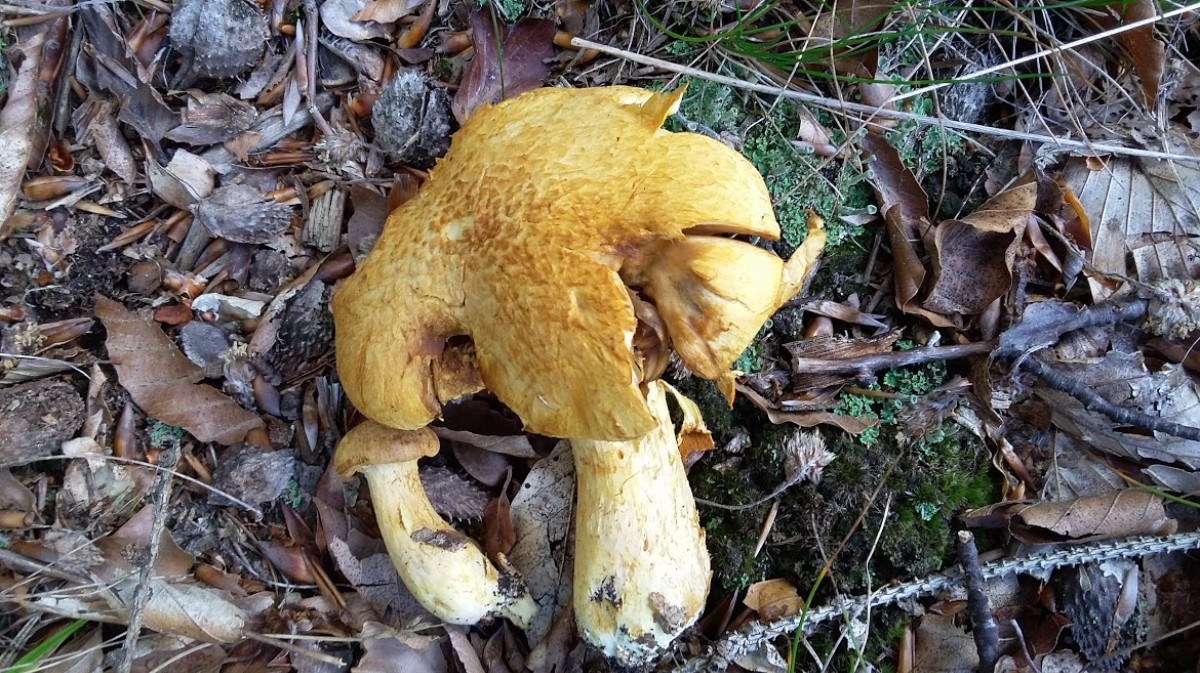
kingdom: Fungi
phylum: Basidiomycota
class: Agaricomycetes
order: Agaricales
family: Hymenogastraceae
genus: Gymnopilus
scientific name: Gymnopilus spectabilis
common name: fibret flammehat
